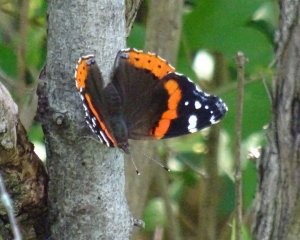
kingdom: Animalia
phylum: Arthropoda
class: Insecta
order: Lepidoptera
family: Nymphalidae
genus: Vanessa
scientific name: Vanessa atalanta
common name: Red Admiral
